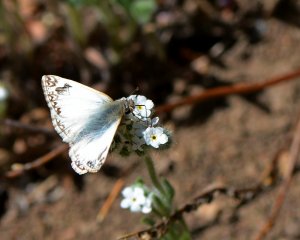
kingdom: Animalia
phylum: Arthropoda
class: Insecta
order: Lepidoptera
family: Hesperiidae
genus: Heliopetes
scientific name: Heliopetes ericetorum
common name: Northern White-Skipper
